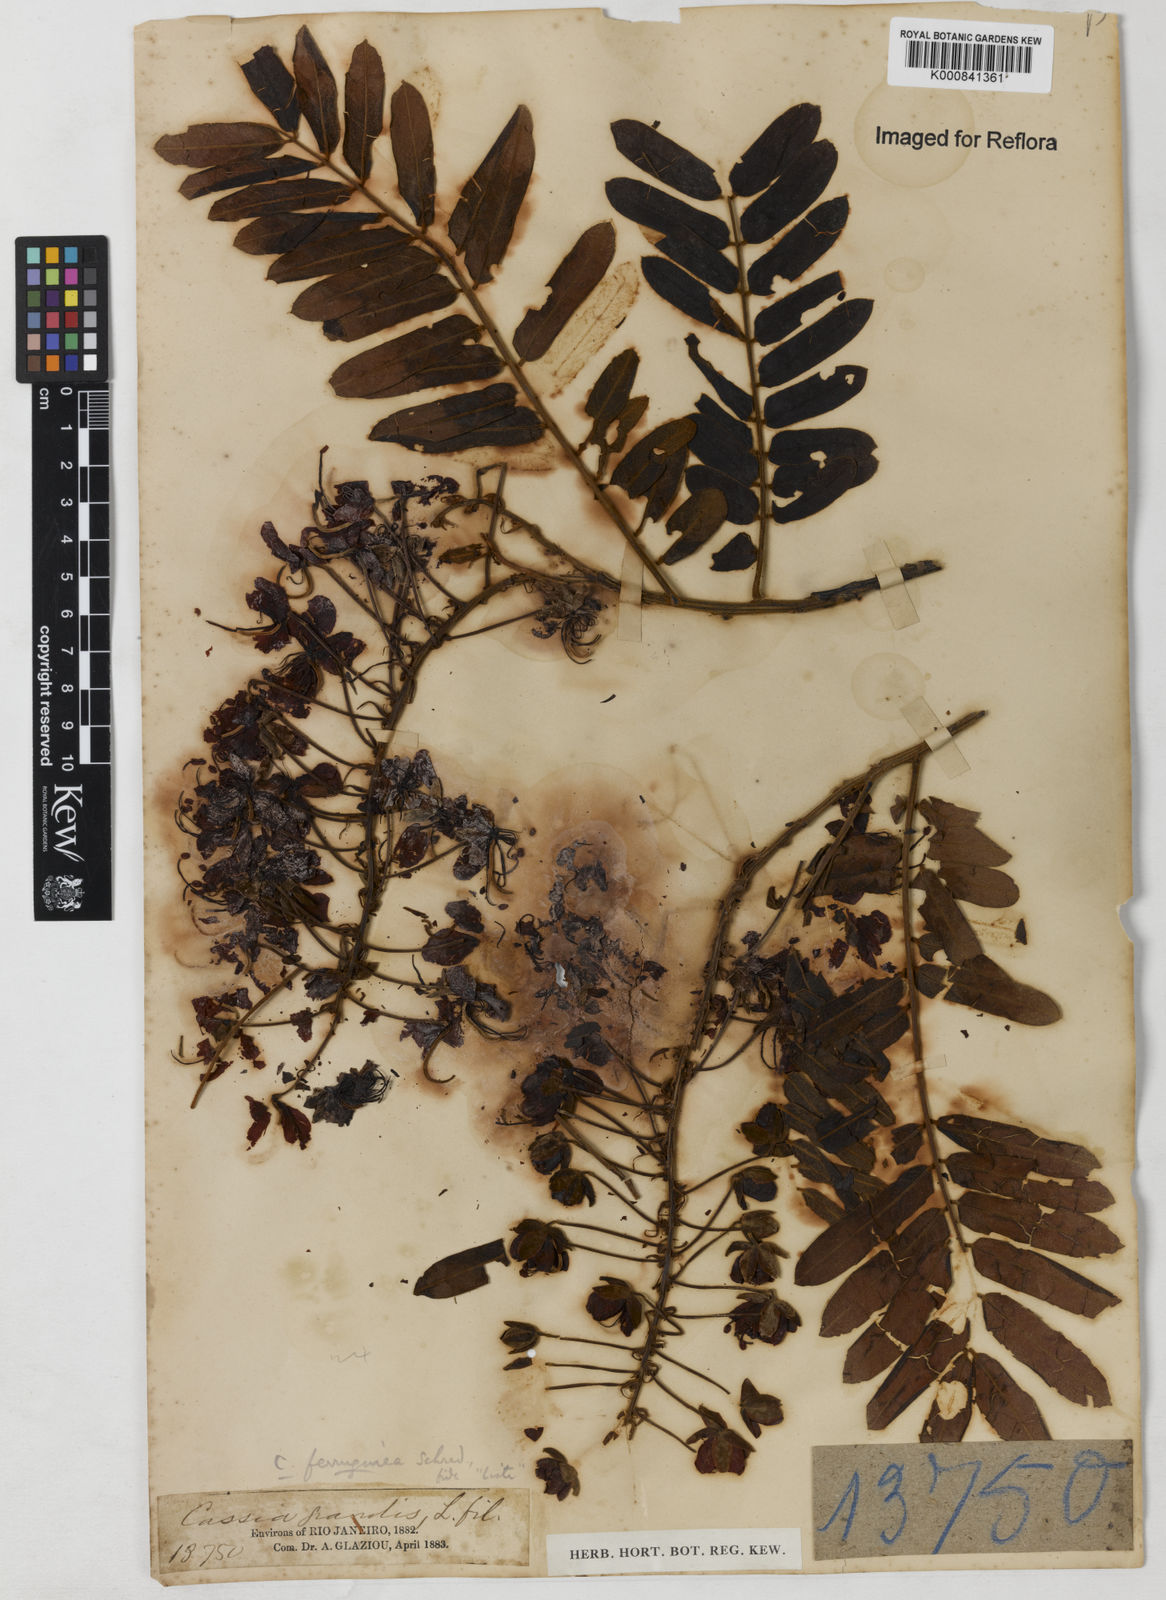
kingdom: Plantae
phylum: Tracheophyta
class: Magnoliopsida
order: Fabales
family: Fabaceae
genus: Cassia
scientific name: Cassia ferruginea
